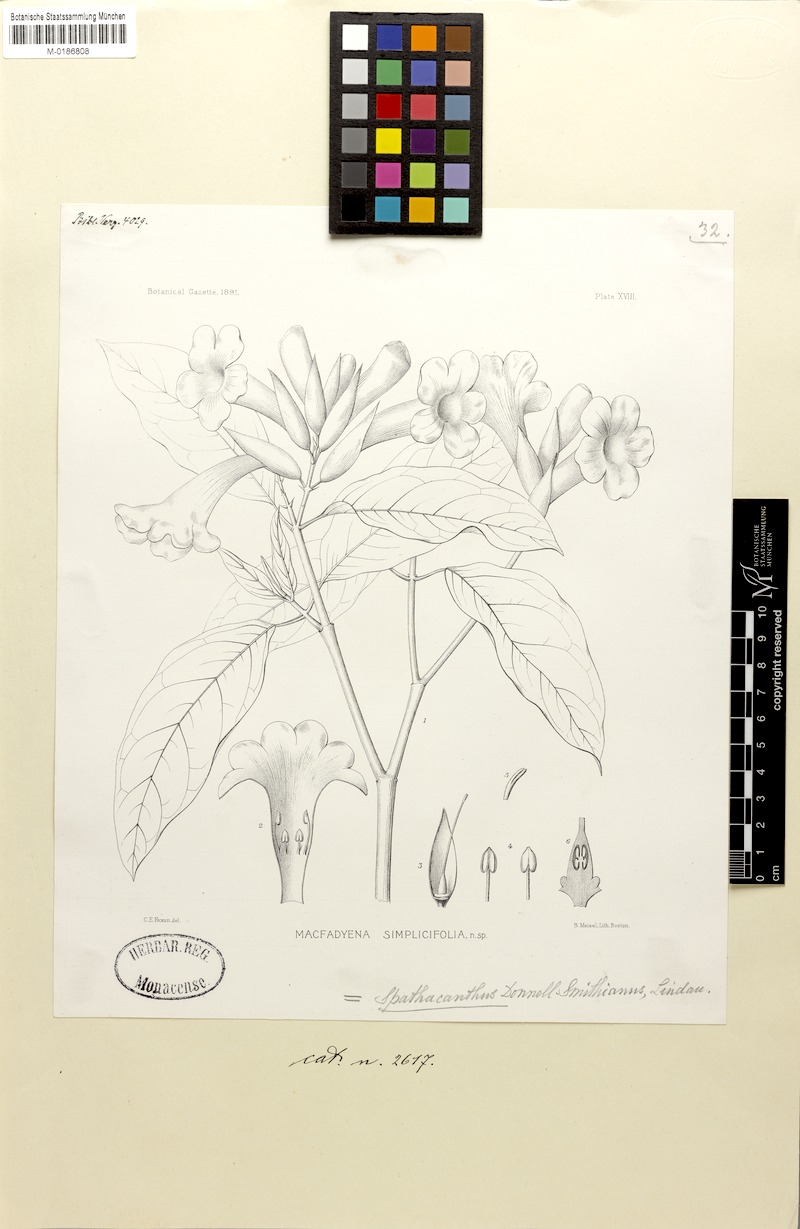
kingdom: Plantae
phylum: Tracheophyta
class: Magnoliopsida
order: Lamiales
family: Acanthaceae
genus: Spathacanthus
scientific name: Spathacanthus hahnianus
